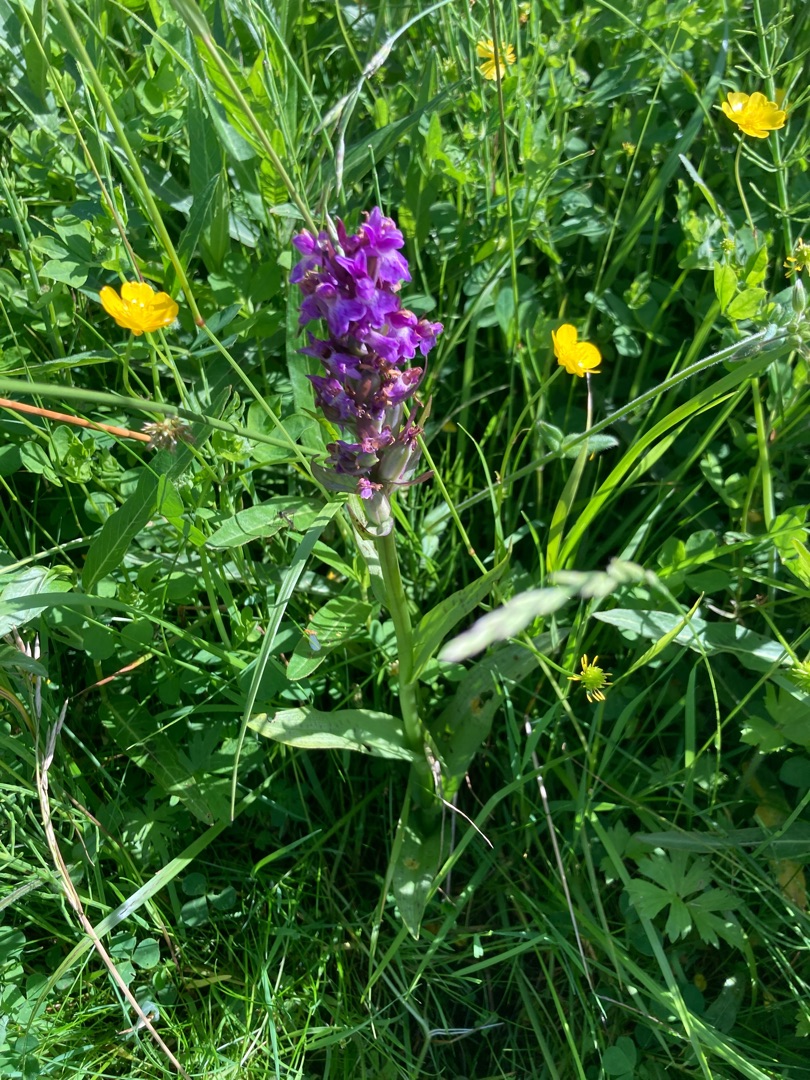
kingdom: Plantae
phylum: Tracheophyta
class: Liliopsida
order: Asparagales
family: Orchidaceae
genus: Dactylorhiza
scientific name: Dactylorhiza majalis
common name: Maj-gøgeurt
